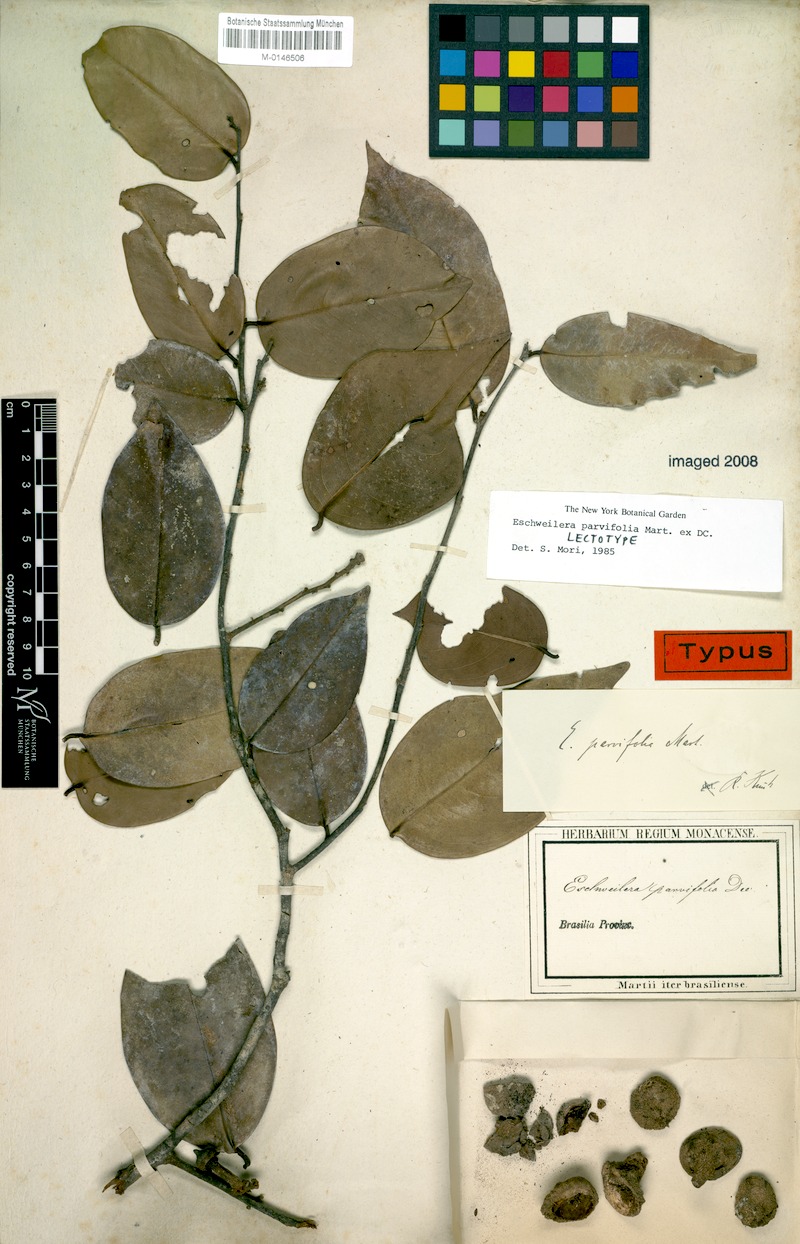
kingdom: Plantae
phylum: Tracheophyta
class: Magnoliopsida
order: Ericales
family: Lecythidaceae
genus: Eschweilera
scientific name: Eschweilera parvifolia
